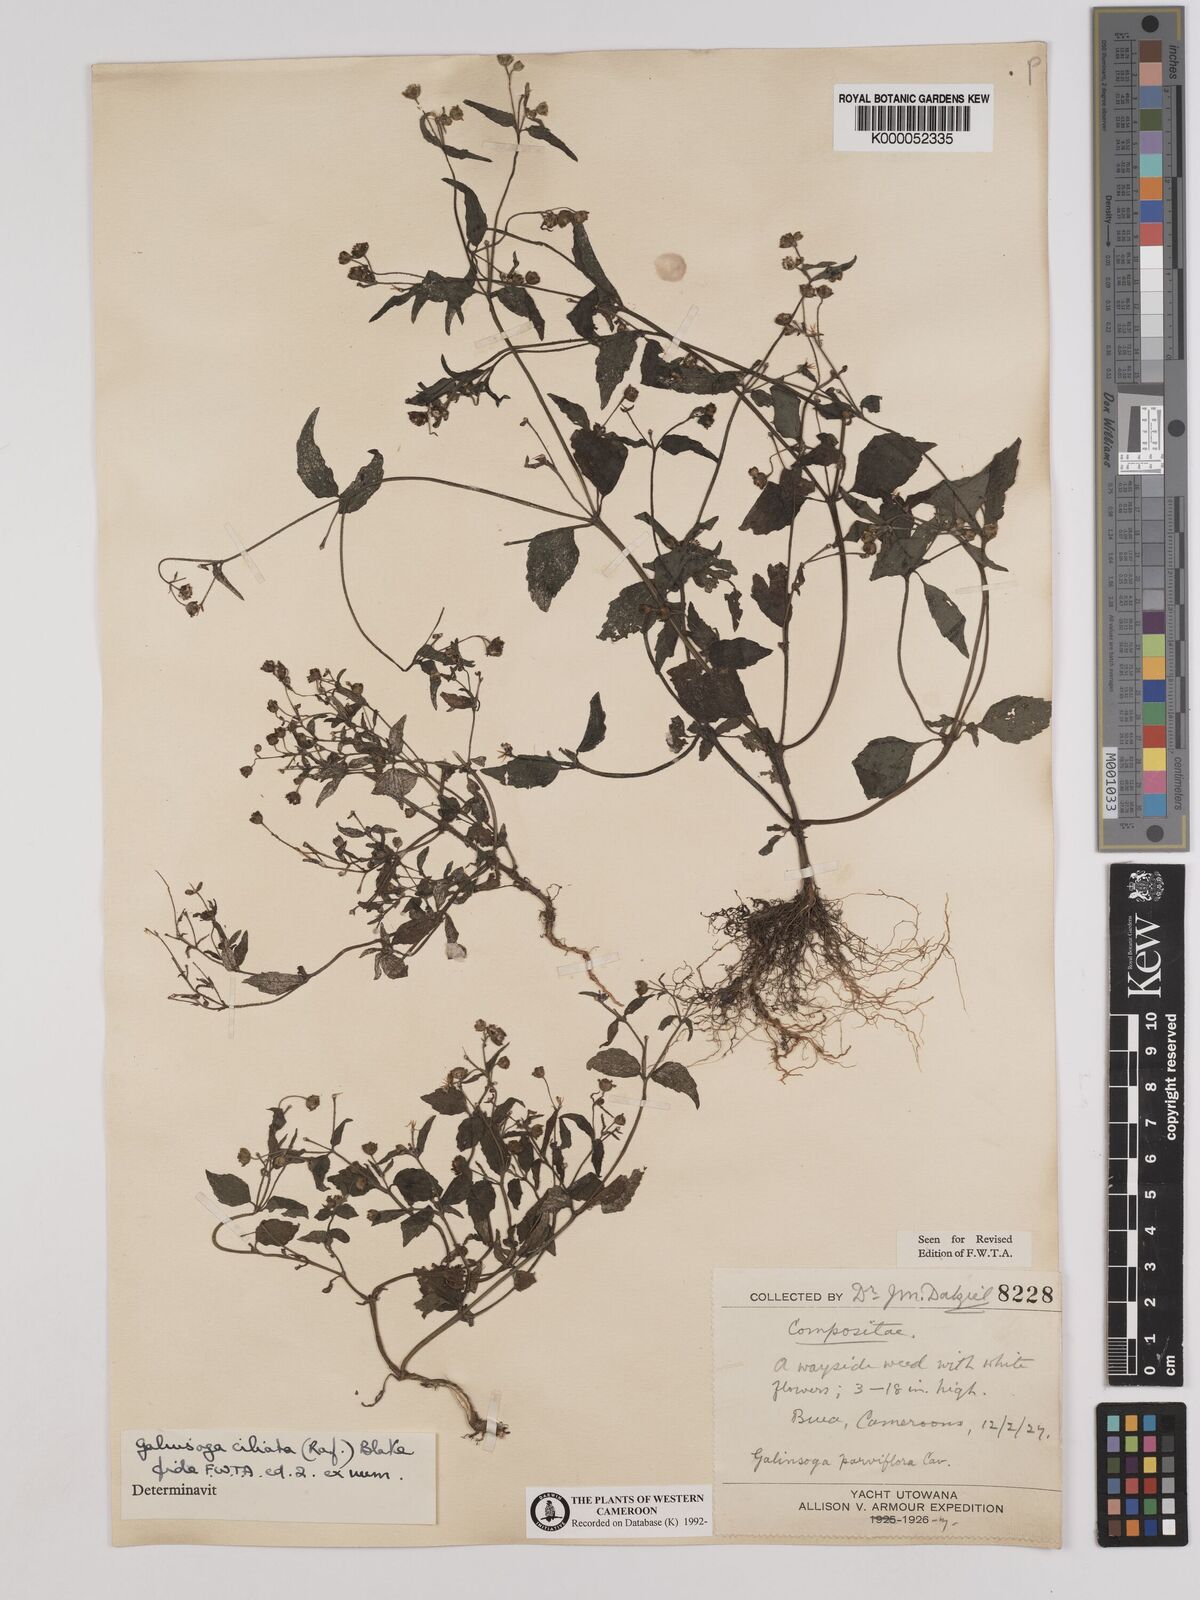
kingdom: Plantae
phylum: Tracheophyta
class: Magnoliopsida
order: Asterales
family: Asteraceae
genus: Galinsoga
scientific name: Galinsoga quadriradiata
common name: Shaggy soldier
